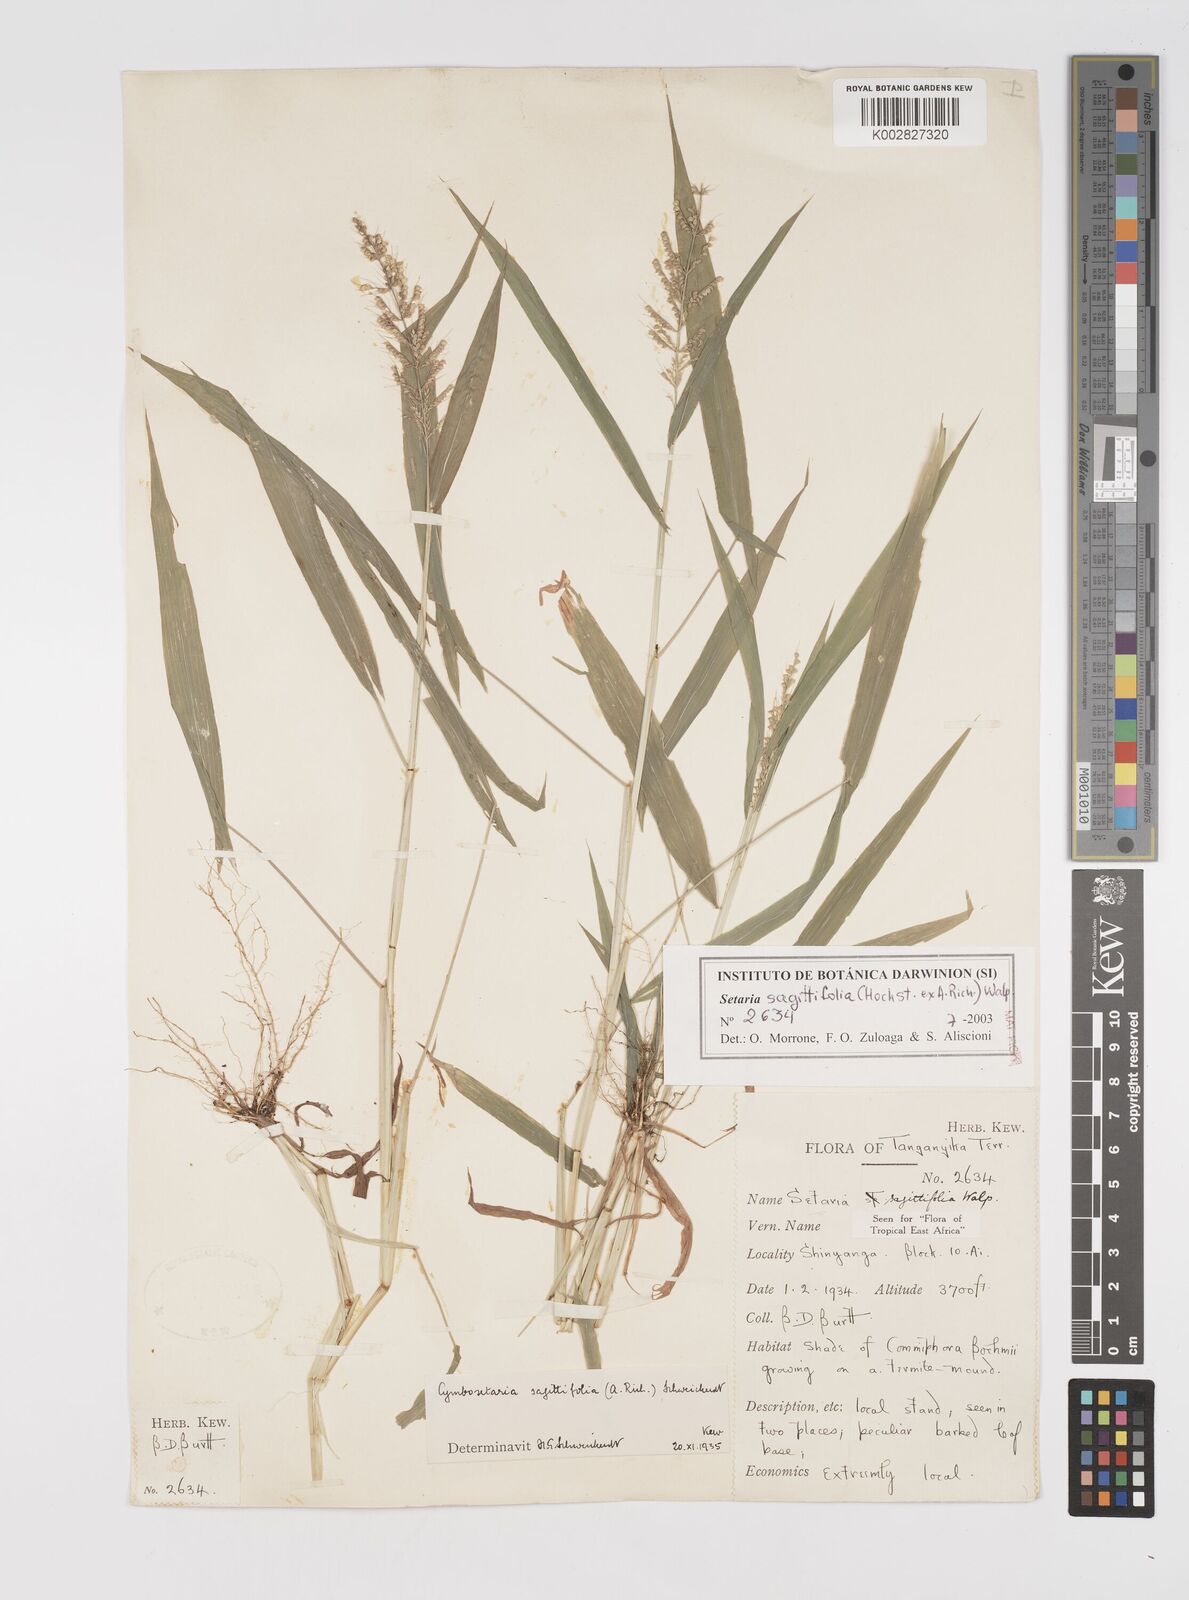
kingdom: Plantae
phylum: Tracheophyta
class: Liliopsida
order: Poales
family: Poaceae
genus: Setaria
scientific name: Setaria sagittifolia
